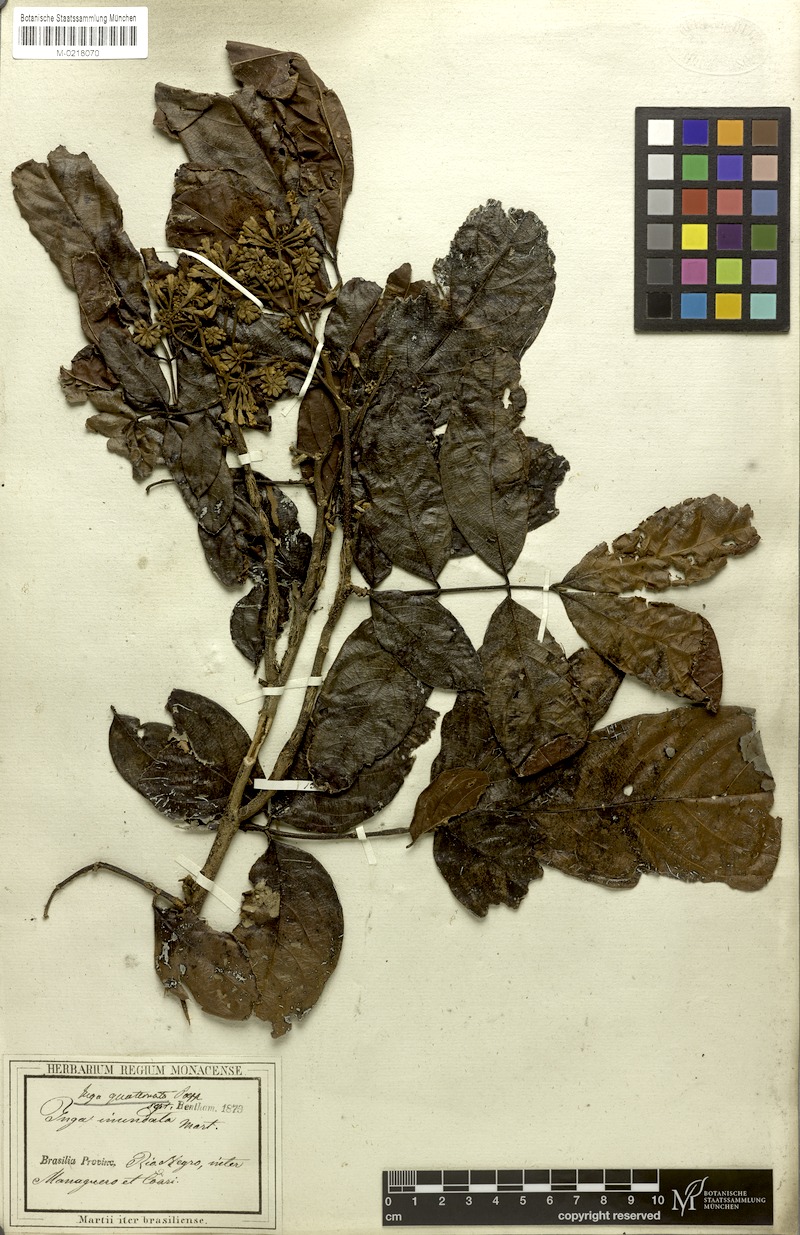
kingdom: Plantae
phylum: Tracheophyta
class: Magnoliopsida
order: Fabales
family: Fabaceae
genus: Inga
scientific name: Inga nobilis
